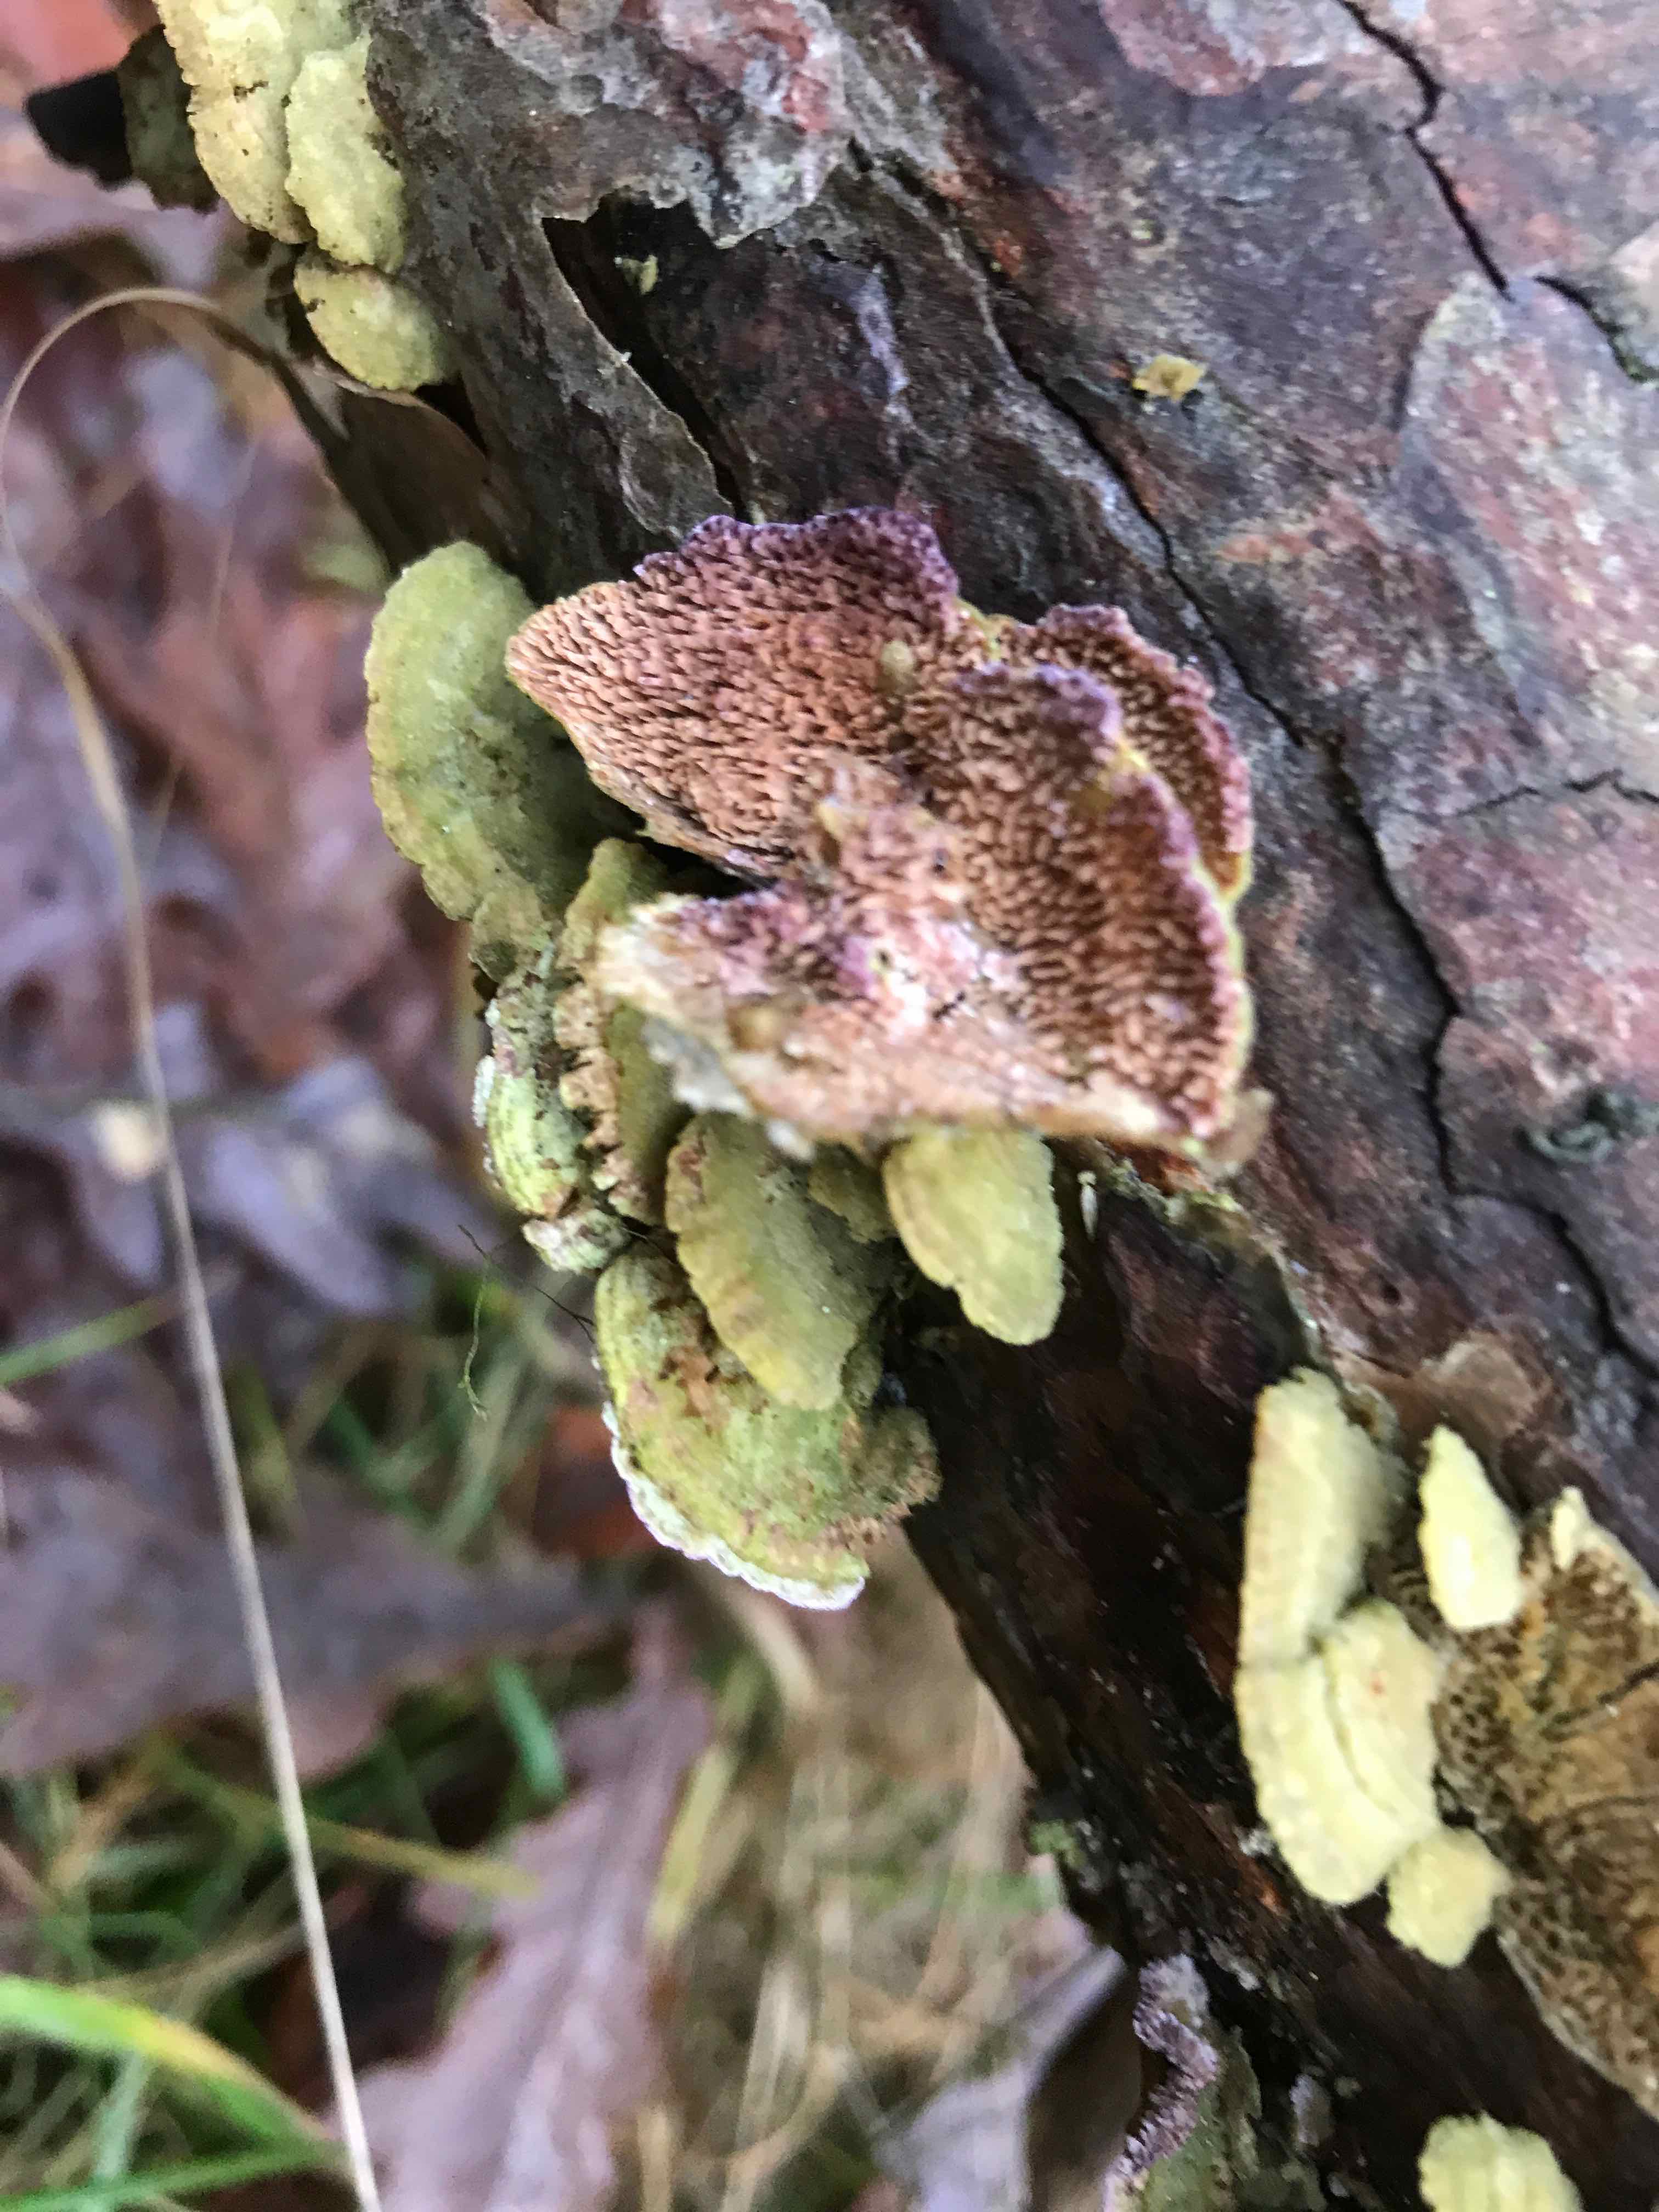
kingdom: Fungi
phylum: Basidiomycota
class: Agaricomycetes
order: Hymenochaetales
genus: Trichaptum
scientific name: Trichaptum fuscoviolaceum
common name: tandet violporesvamp
